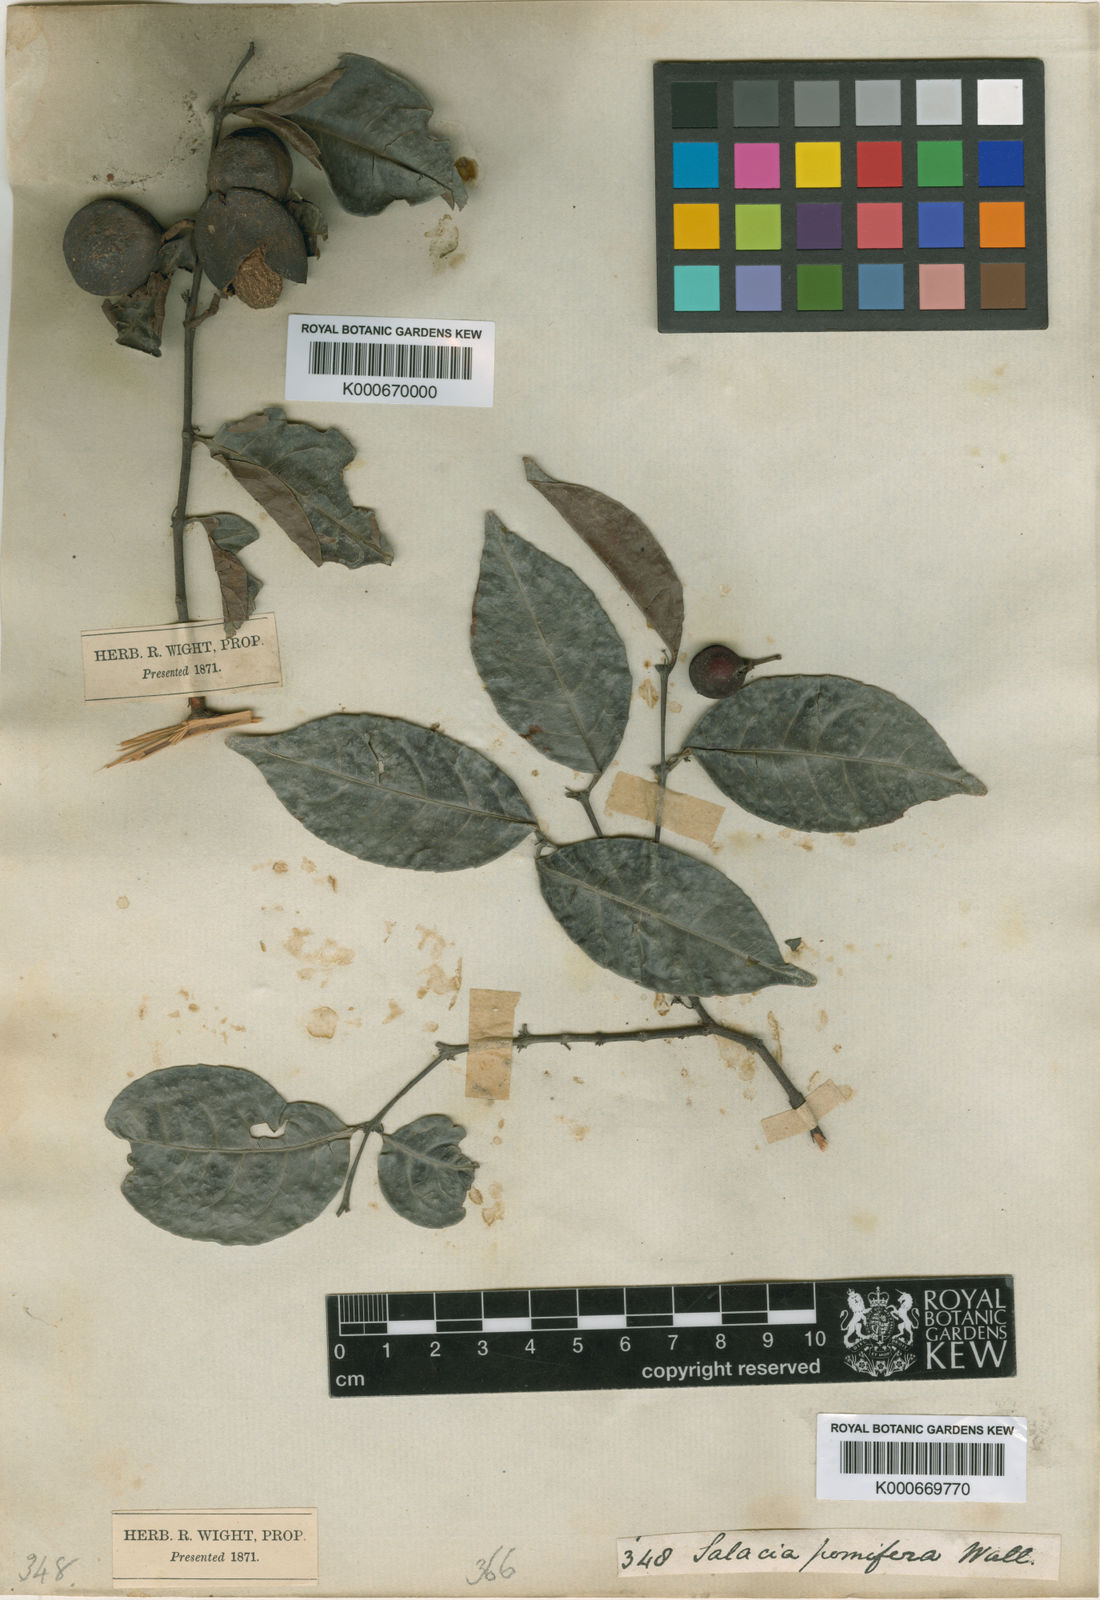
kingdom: Plantae
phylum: Tracheophyta
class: Magnoliopsida
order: Celastrales
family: Celastraceae
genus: Salacia
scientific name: Salacia
